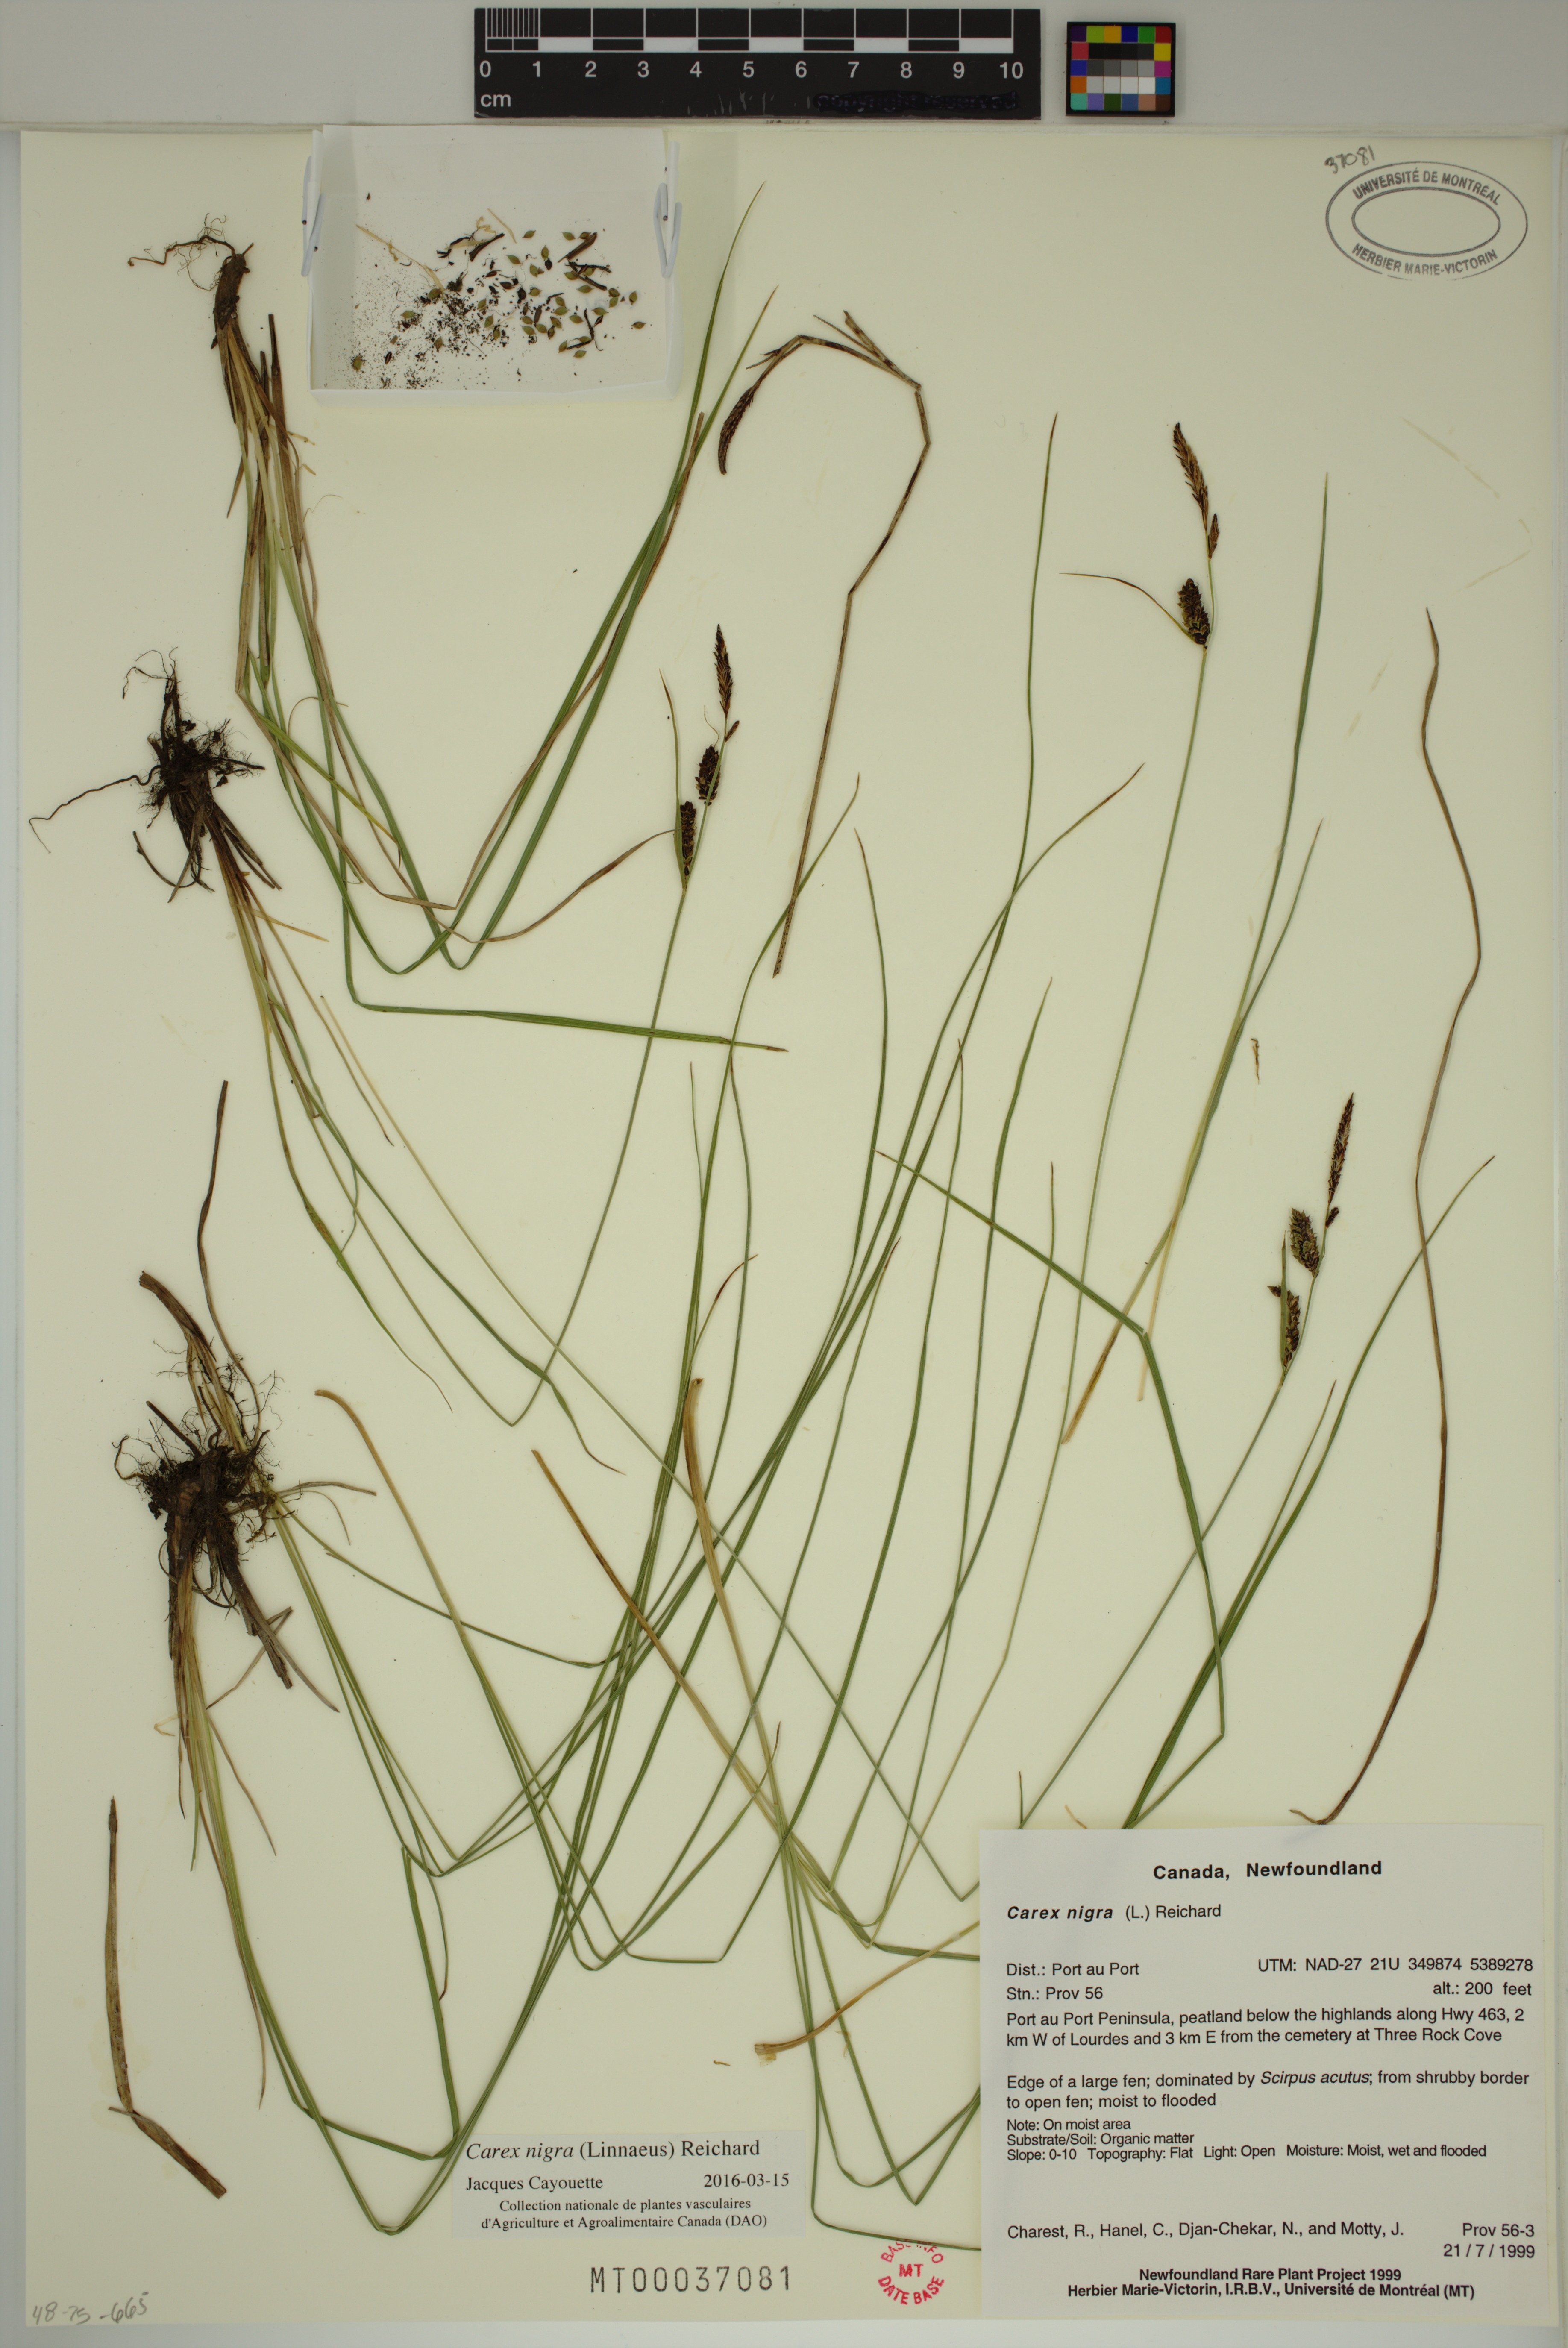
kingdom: Plantae
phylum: Tracheophyta
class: Liliopsida
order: Poales
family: Cyperaceae
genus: Carex
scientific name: Carex nigra
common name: Common sedge
